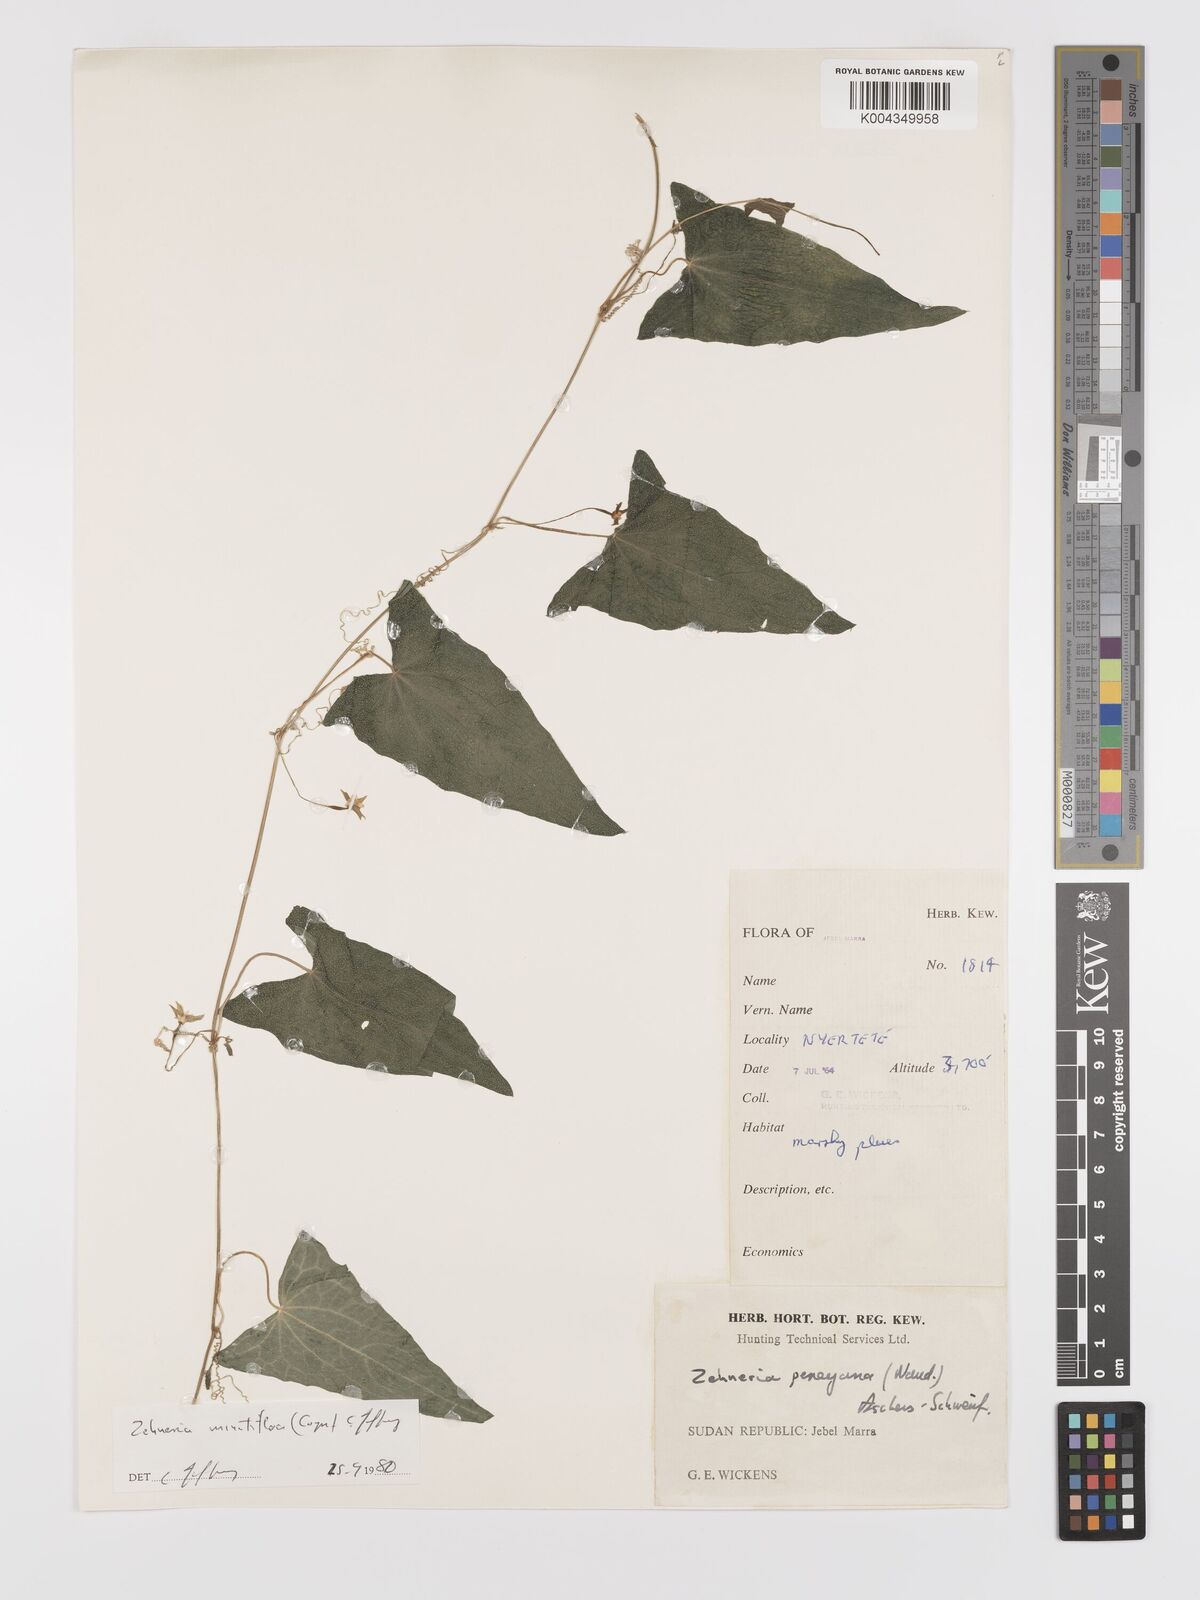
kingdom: Plantae
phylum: Tracheophyta
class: Magnoliopsida
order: Cucurbitales
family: Cucurbitaceae
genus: Zehneria
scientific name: Zehneria minutiflora
